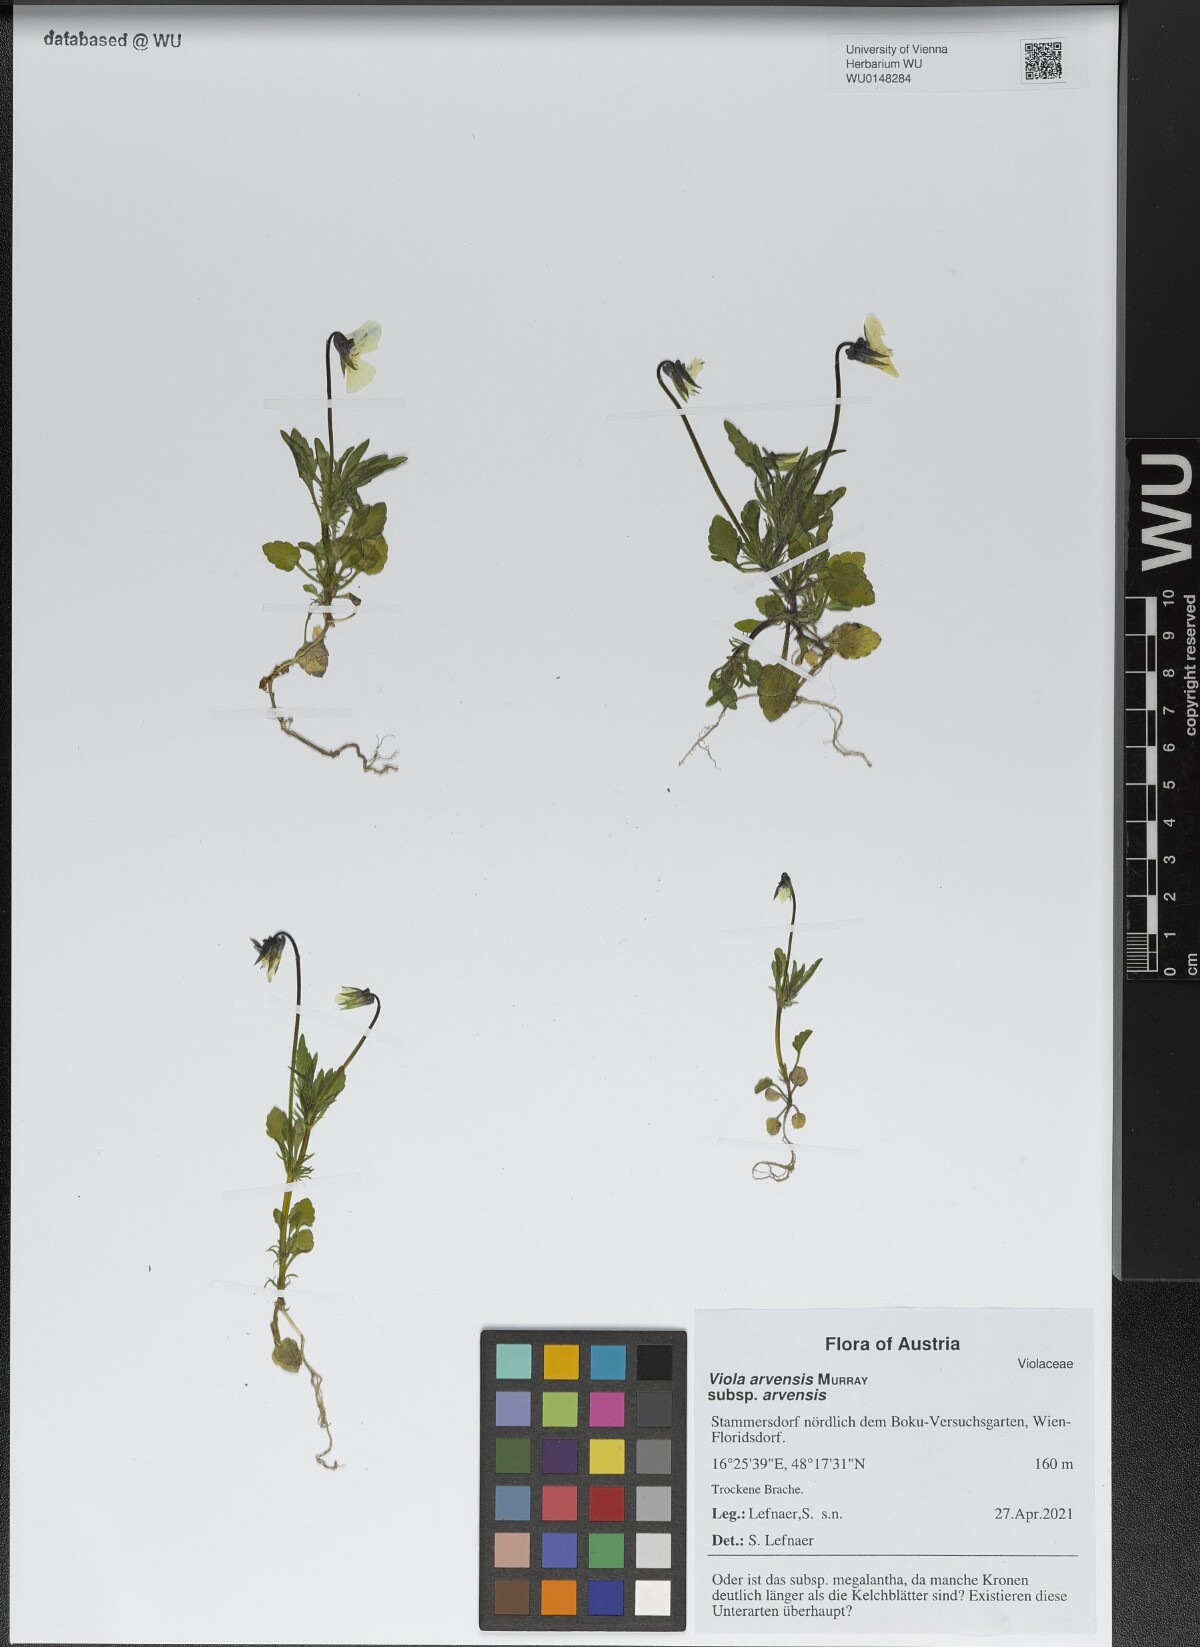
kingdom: Plantae
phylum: Tracheophyta
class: Magnoliopsida
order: Malpighiales
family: Violaceae
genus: Viola
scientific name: Viola arvensis
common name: Field pansy
